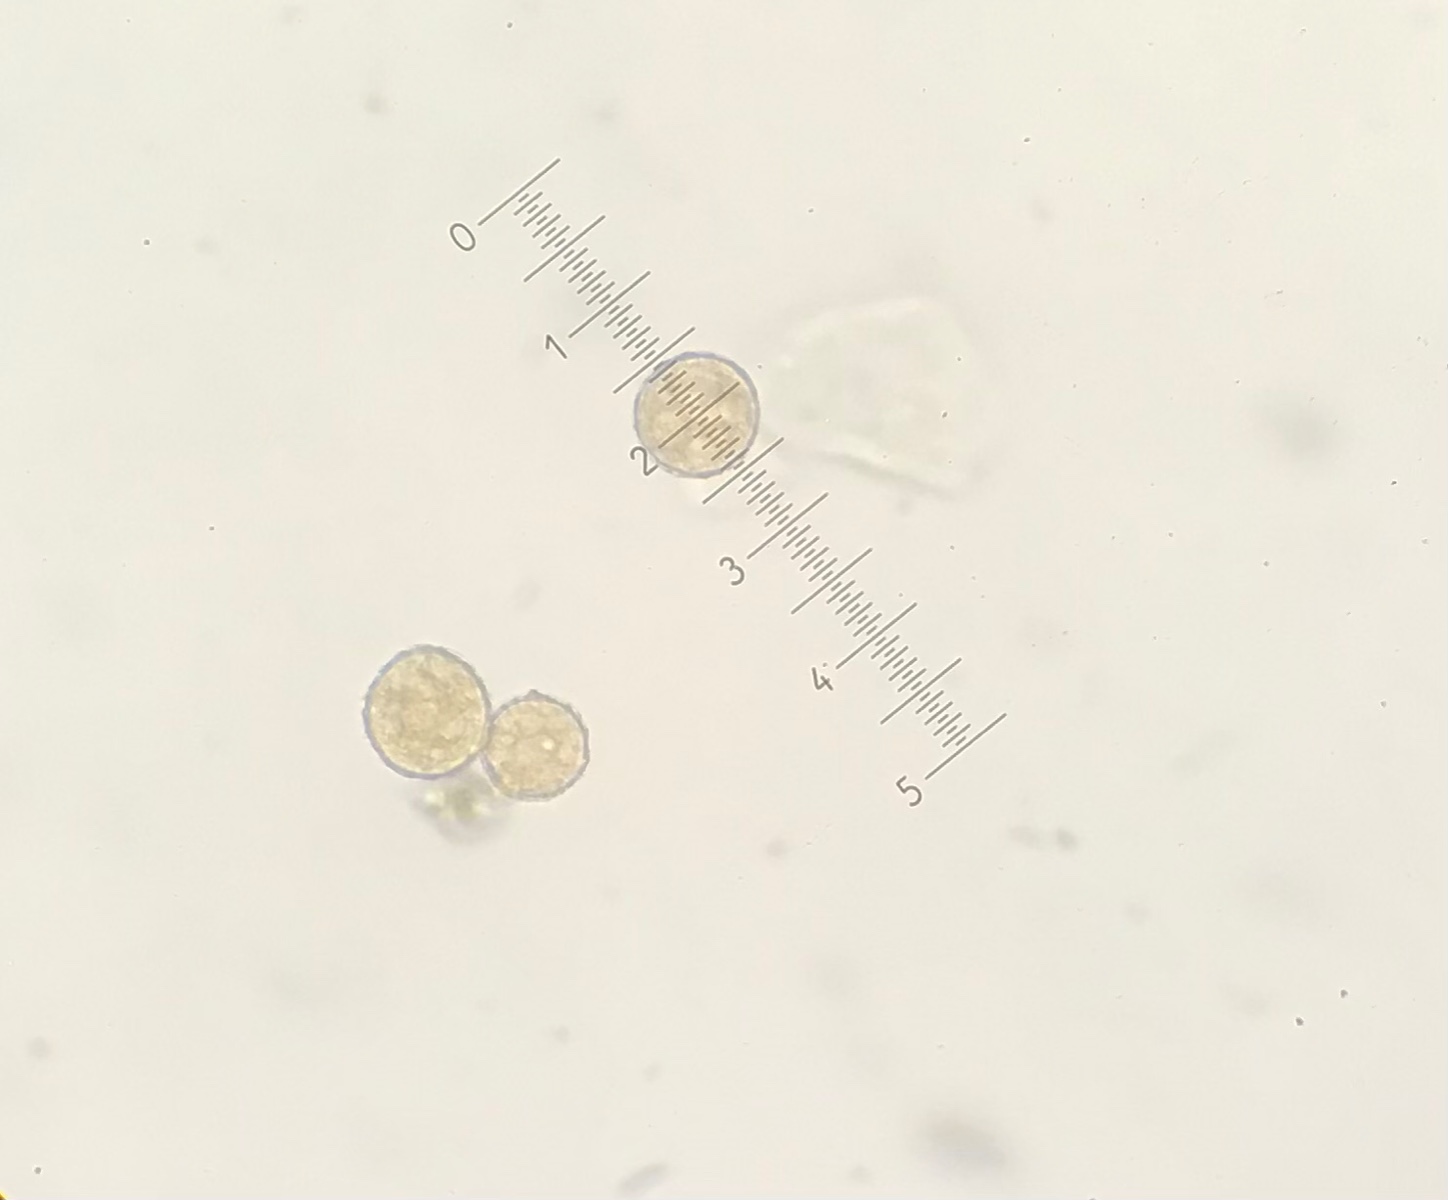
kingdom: Fungi
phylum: Basidiomycota
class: Pucciniomycetes
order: Pucciniales
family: Phragmidiaceae
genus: Phragmidium
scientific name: Phragmidium
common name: flercellerust
